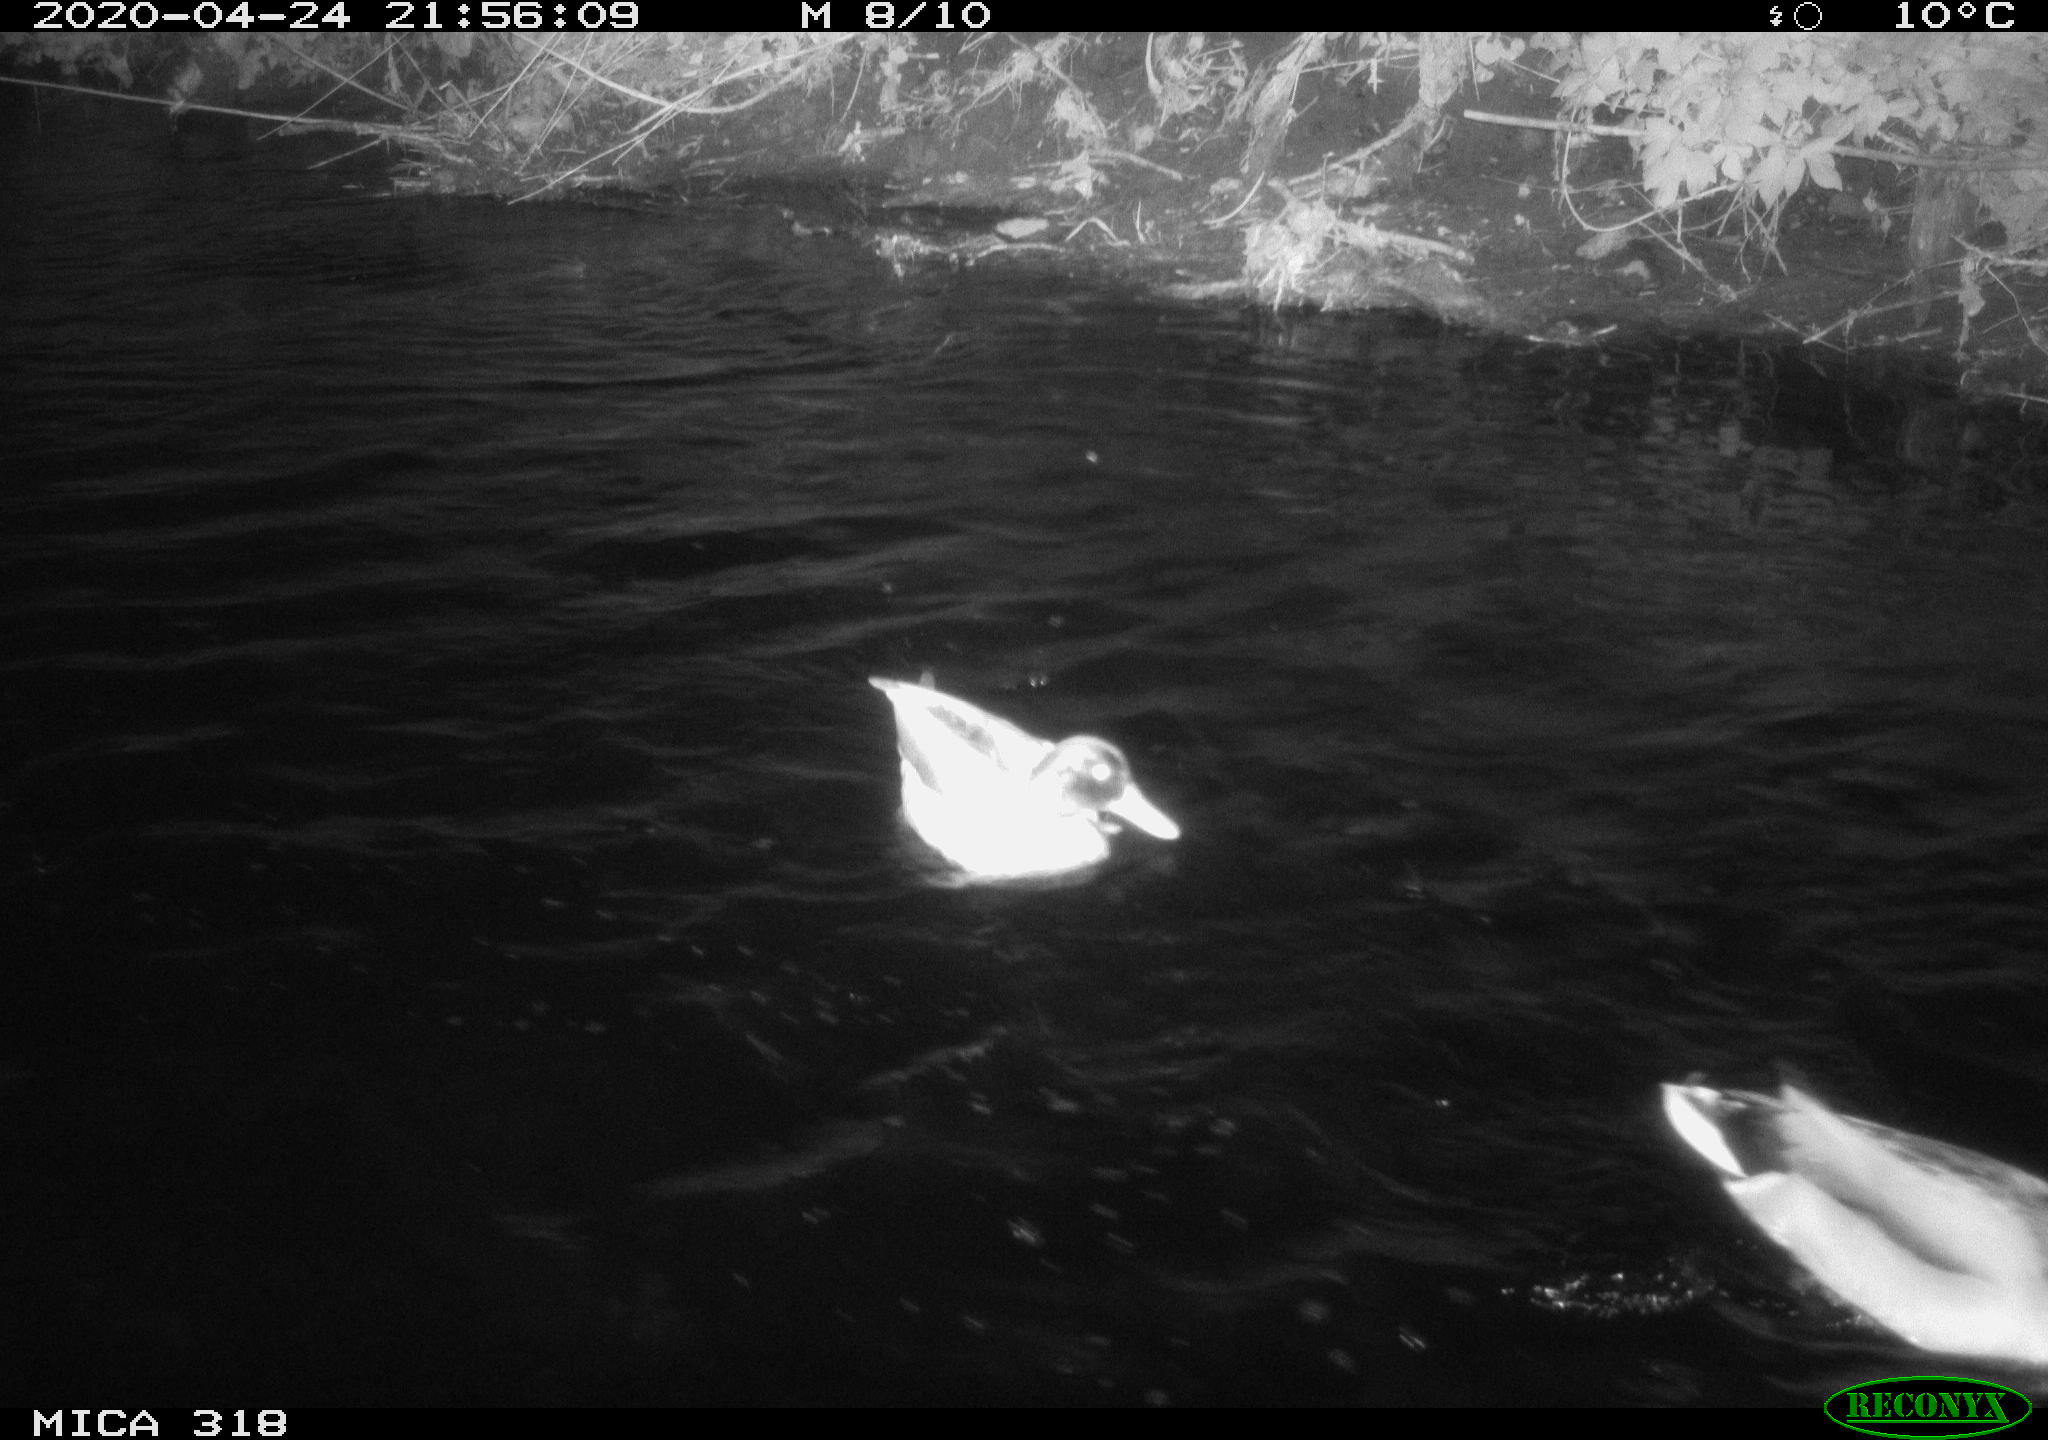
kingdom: Animalia
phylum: Chordata
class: Aves
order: Anseriformes
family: Anatidae
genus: Anas
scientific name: Anas platyrhynchos
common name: Mallard
